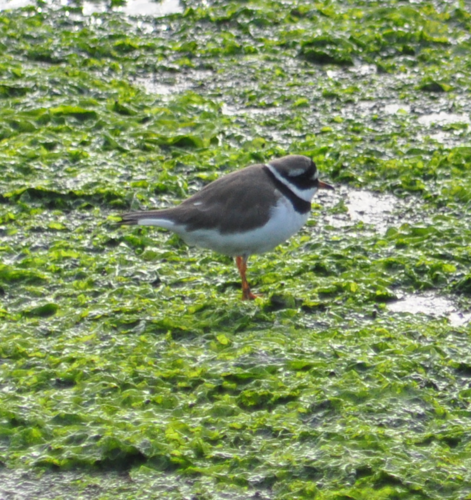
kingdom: Animalia
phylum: Chordata
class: Aves
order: Charadriiformes
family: Charadriidae
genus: Charadrius
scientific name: Charadrius hiaticula
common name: Common ringed plover
